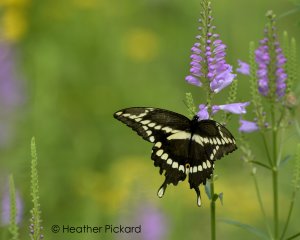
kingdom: Animalia
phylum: Arthropoda
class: Insecta
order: Lepidoptera
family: Papilionidae
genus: Papilio
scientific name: Papilio cresphontes
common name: Eastern Giant Swallowtail
